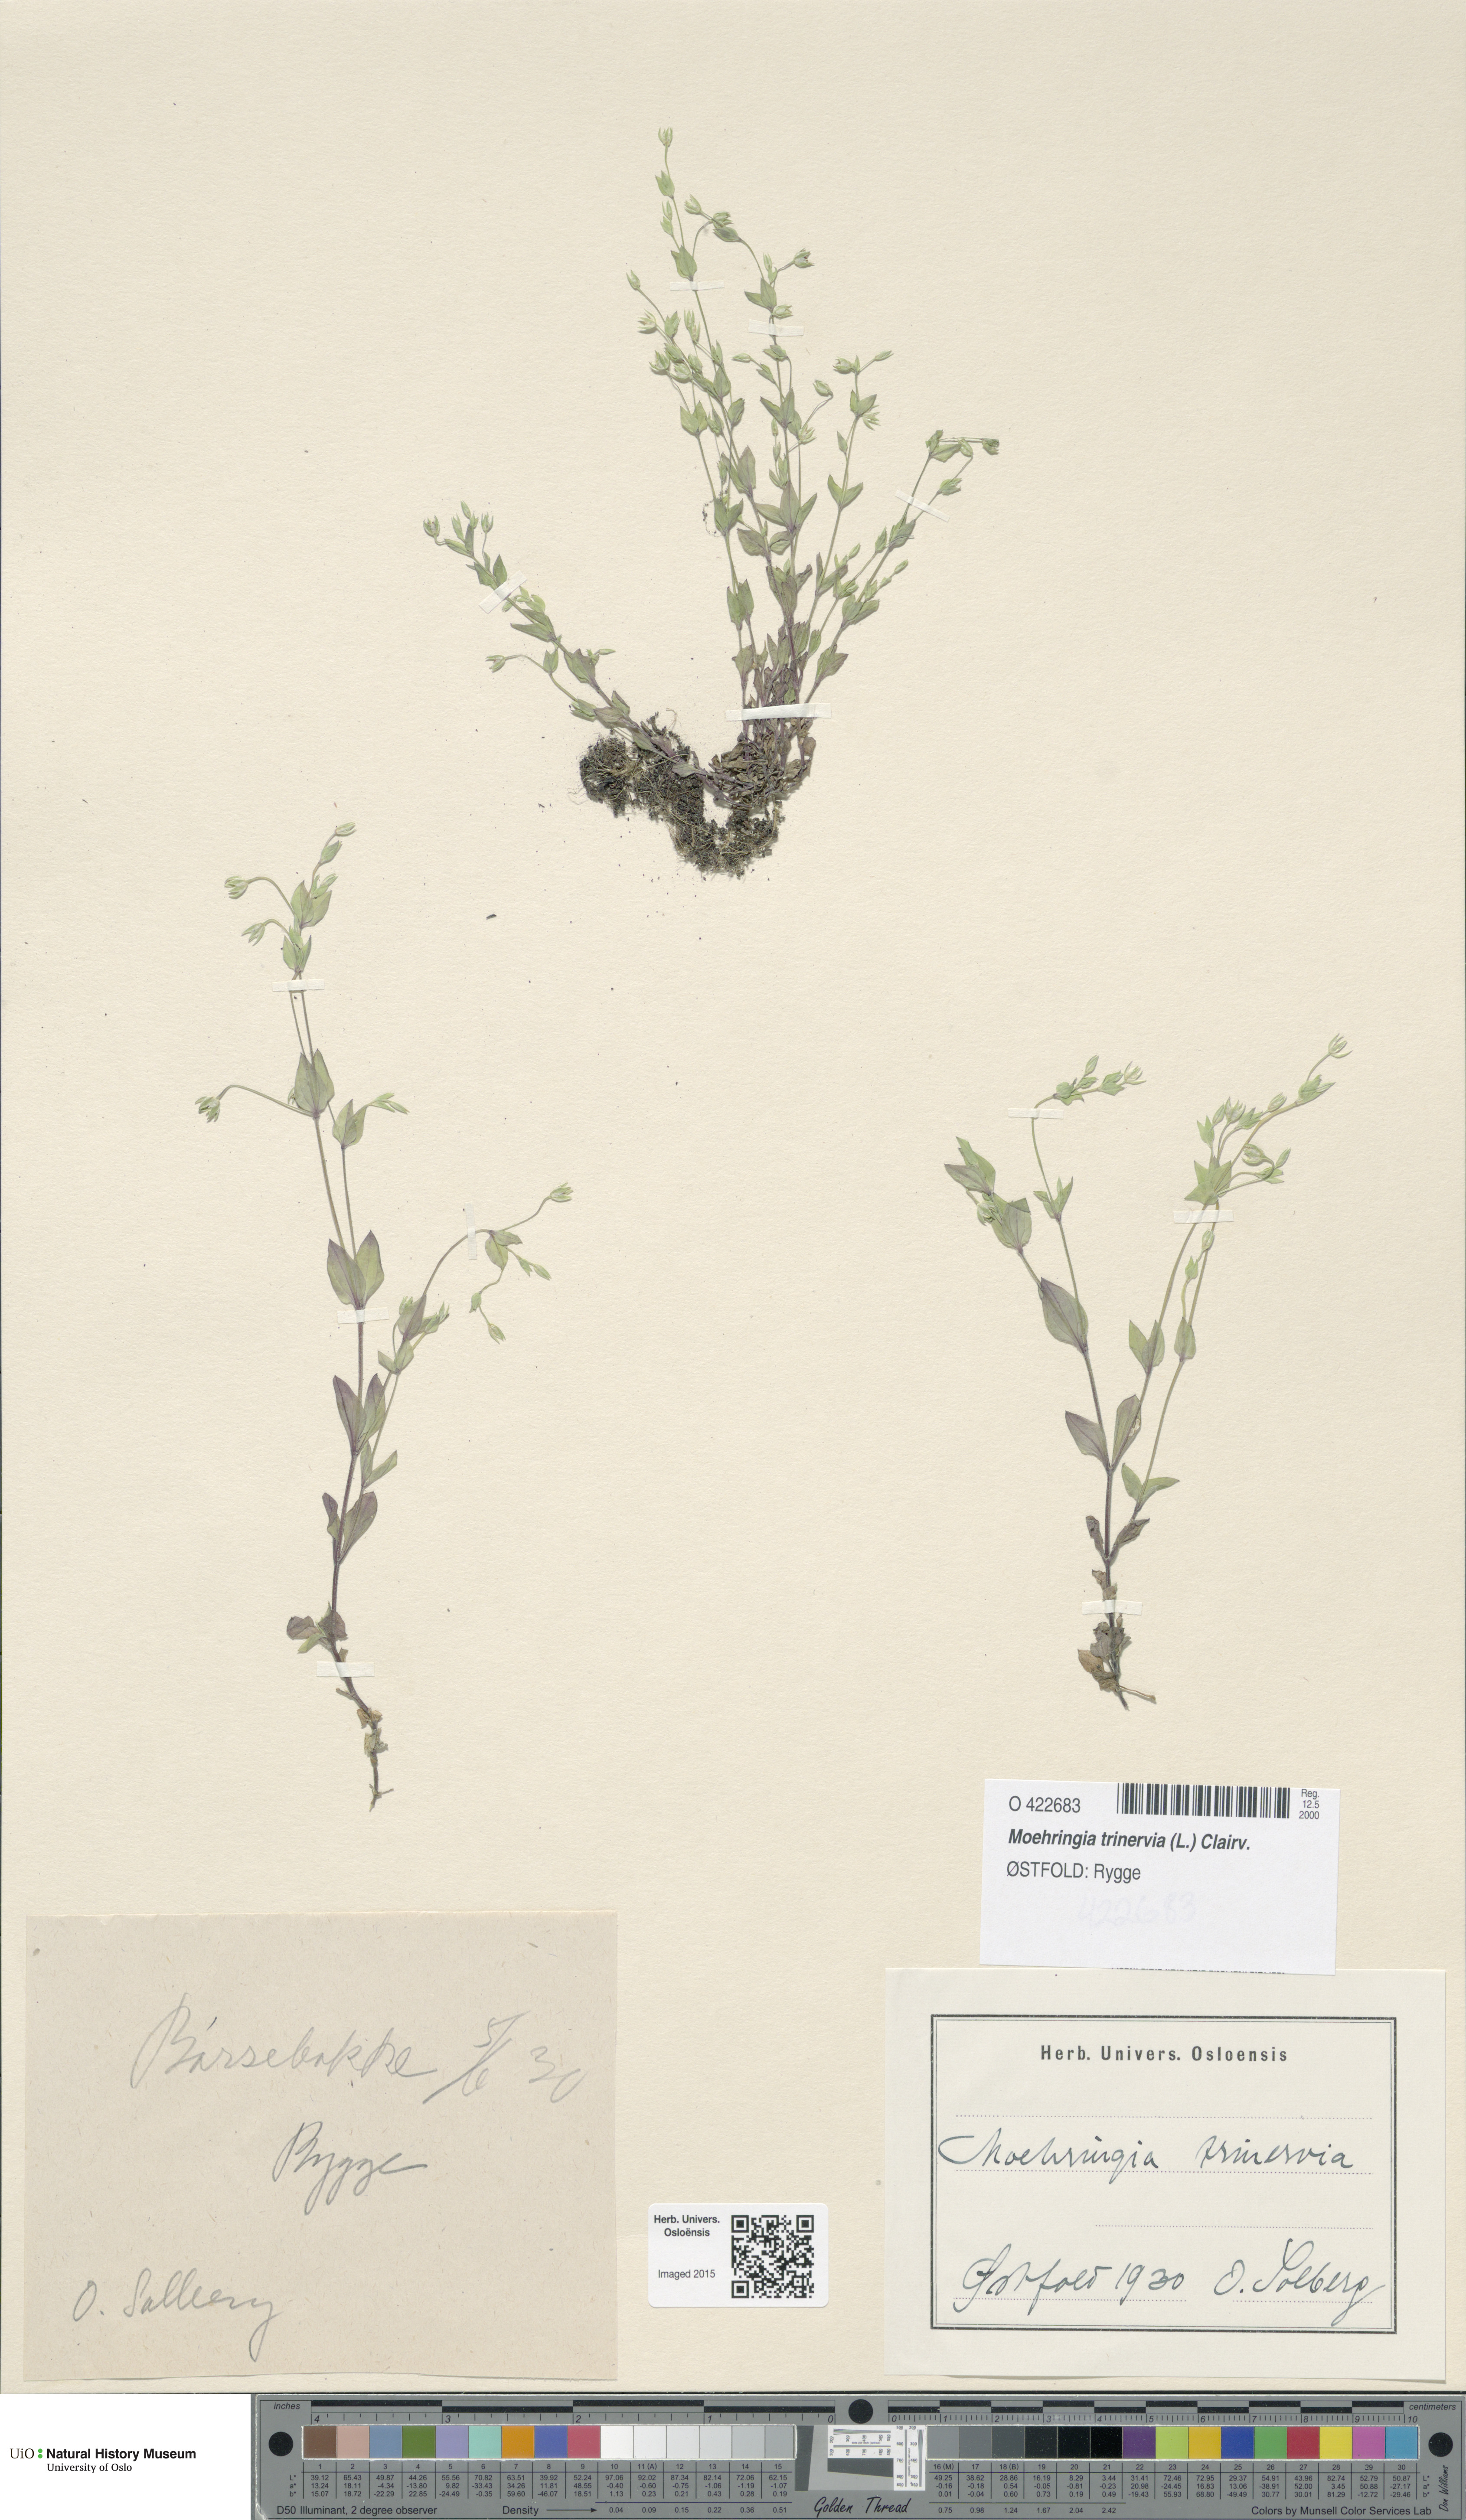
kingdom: Plantae
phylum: Tracheophyta
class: Magnoliopsida
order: Caryophyllales
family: Caryophyllaceae
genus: Moehringia
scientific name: Moehringia trinervia
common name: Three-nerved sandwort
